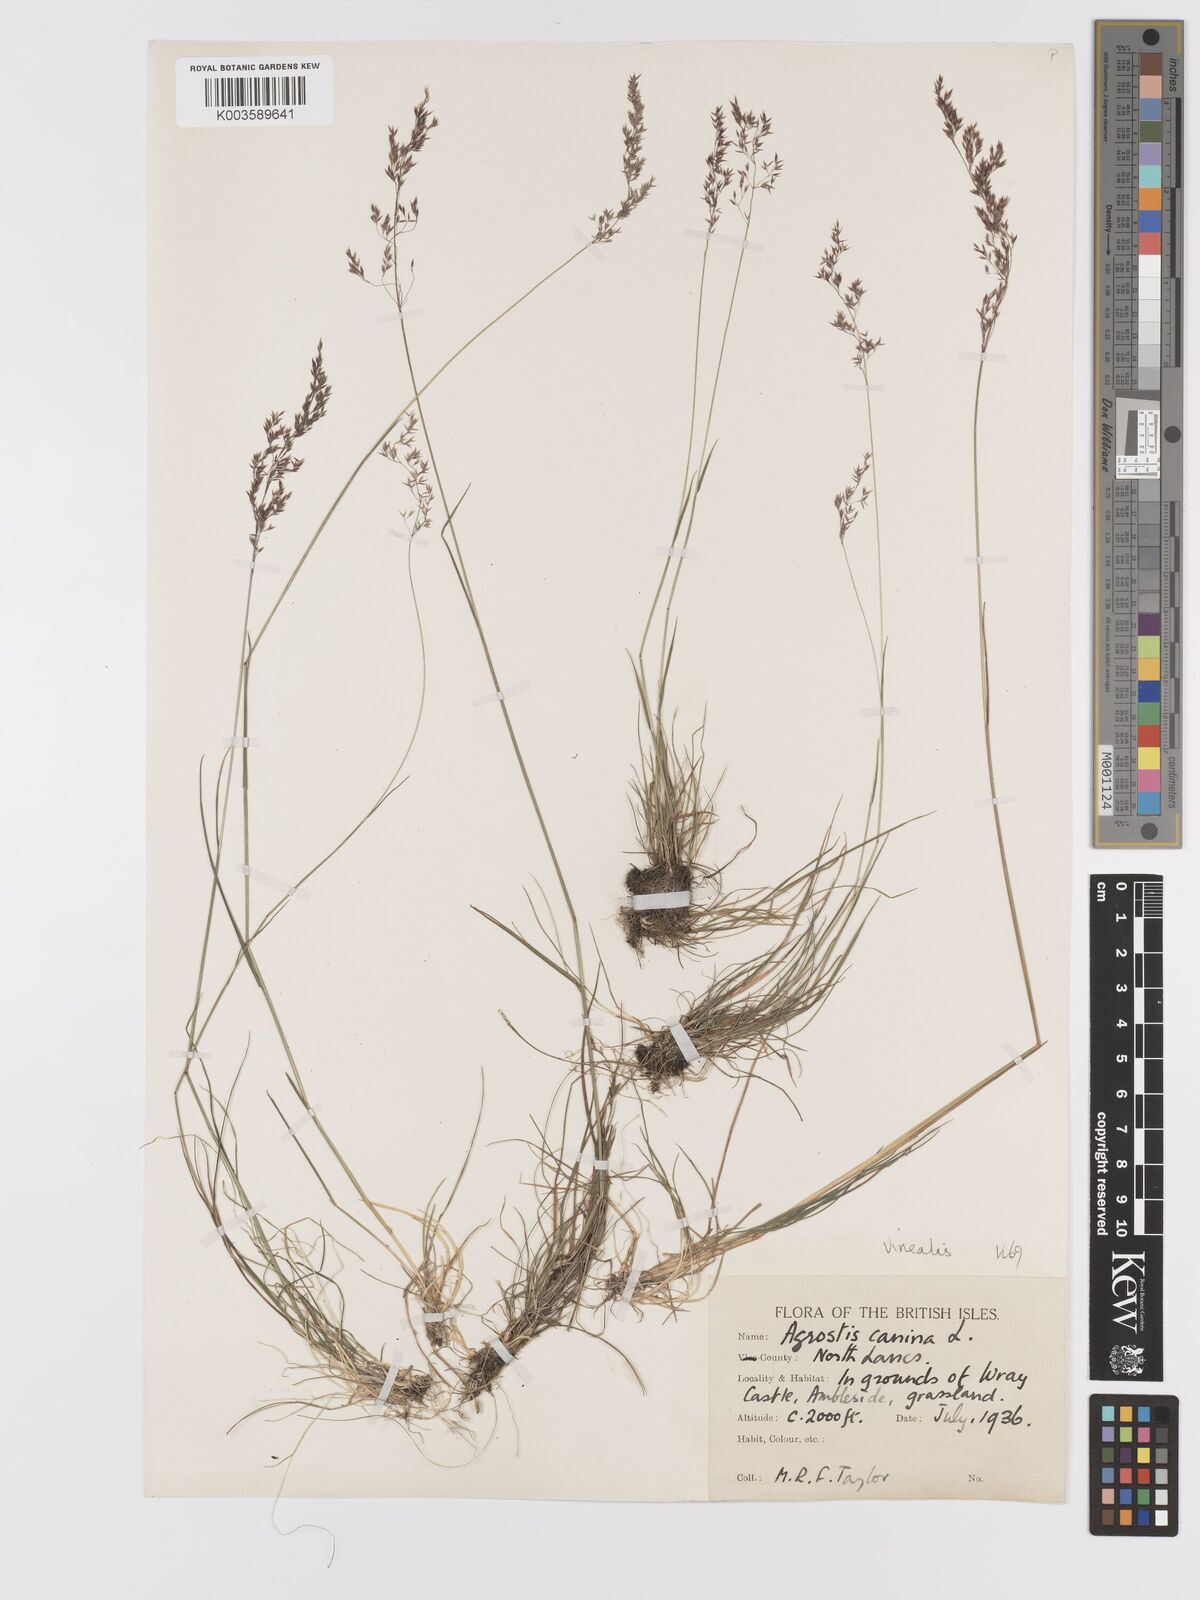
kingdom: Plantae
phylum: Tracheophyta
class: Liliopsida
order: Poales
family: Poaceae
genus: Agrostis
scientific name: Agrostis
